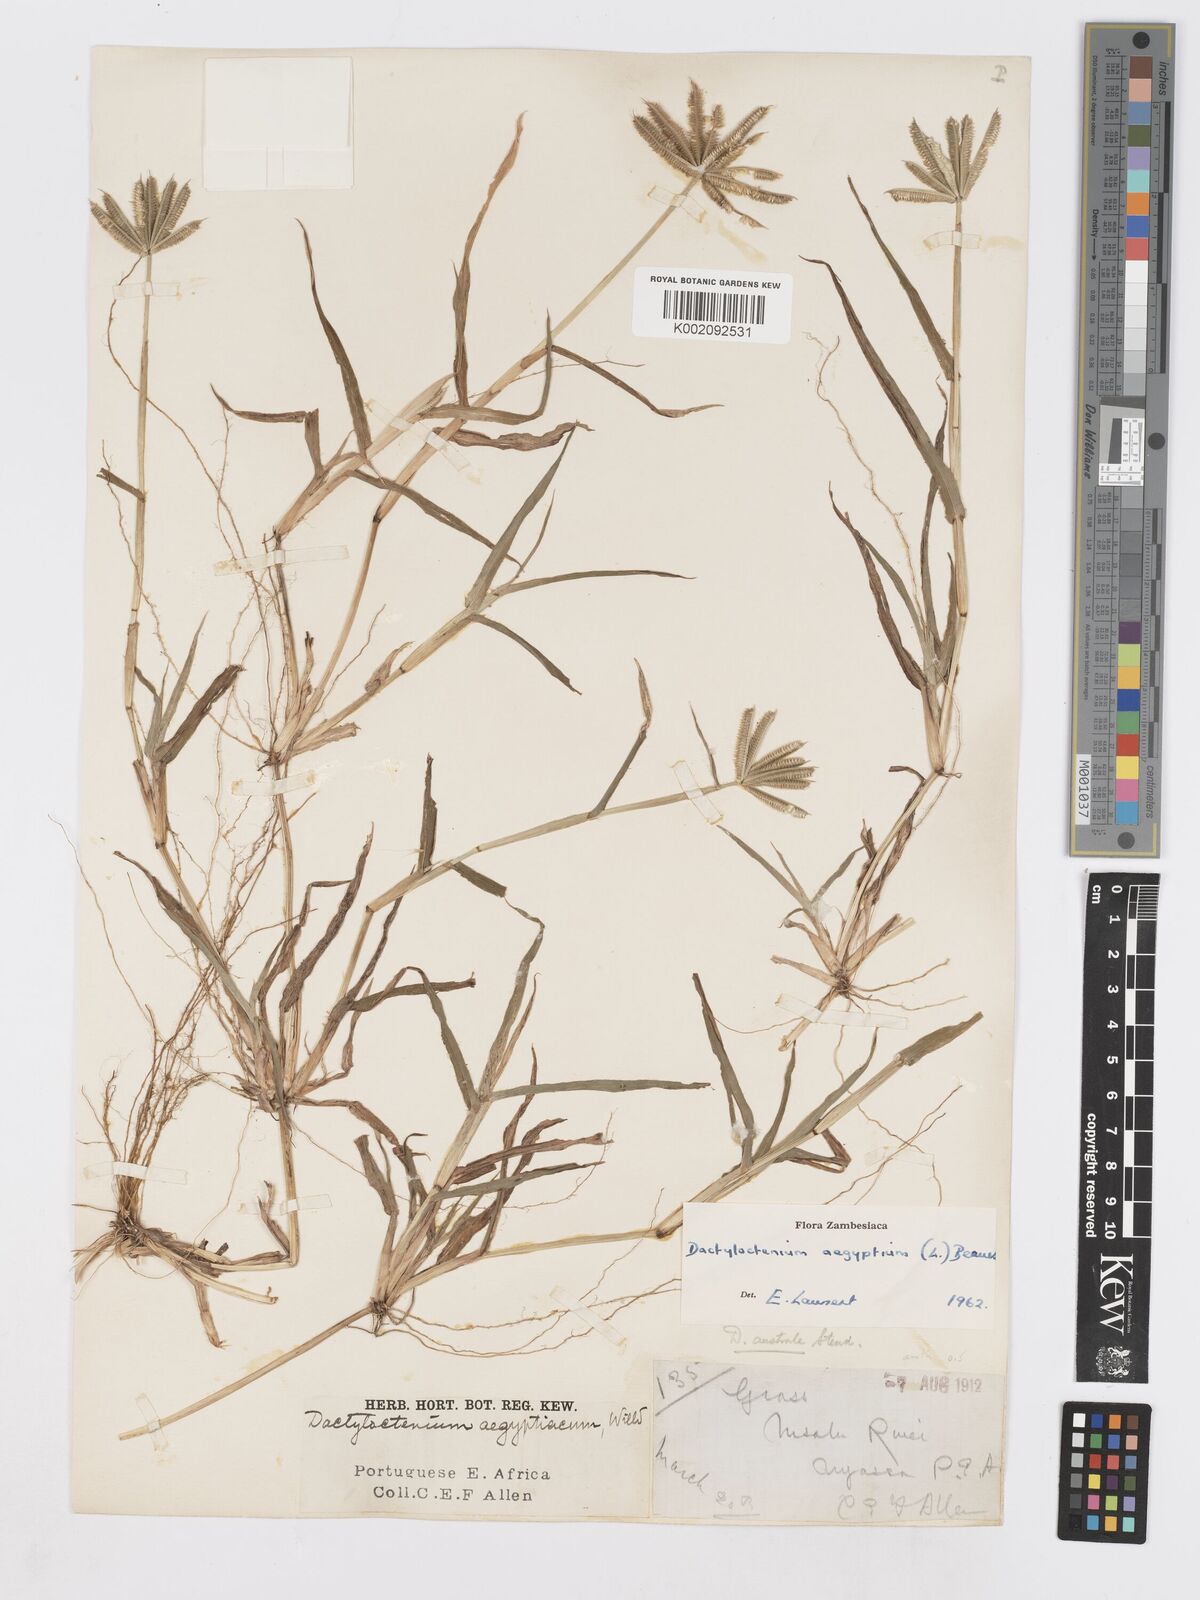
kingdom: Plantae
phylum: Tracheophyta
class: Liliopsida
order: Poales
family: Poaceae
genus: Dactyloctenium
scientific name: Dactyloctenium aegyptium
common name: Egyptian grass
